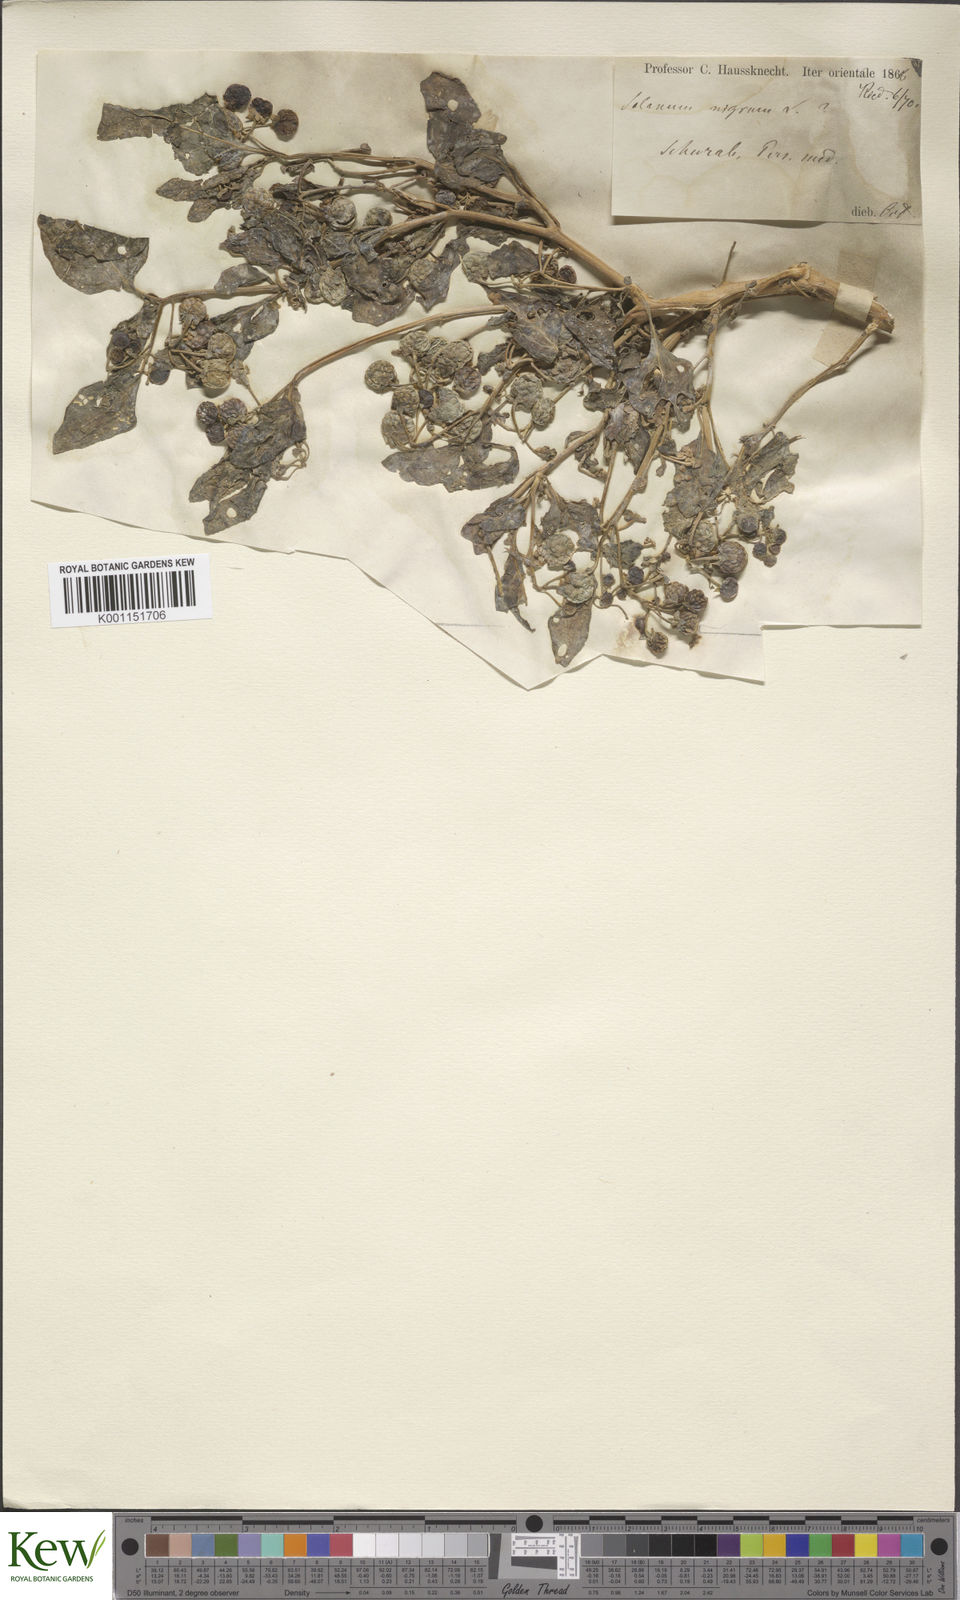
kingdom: Plantae
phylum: Tracheophyta
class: Magnoliopsida
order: Solanales
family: Solanaceae
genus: Solanum
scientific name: Solanum villosum
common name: Red nightshade
